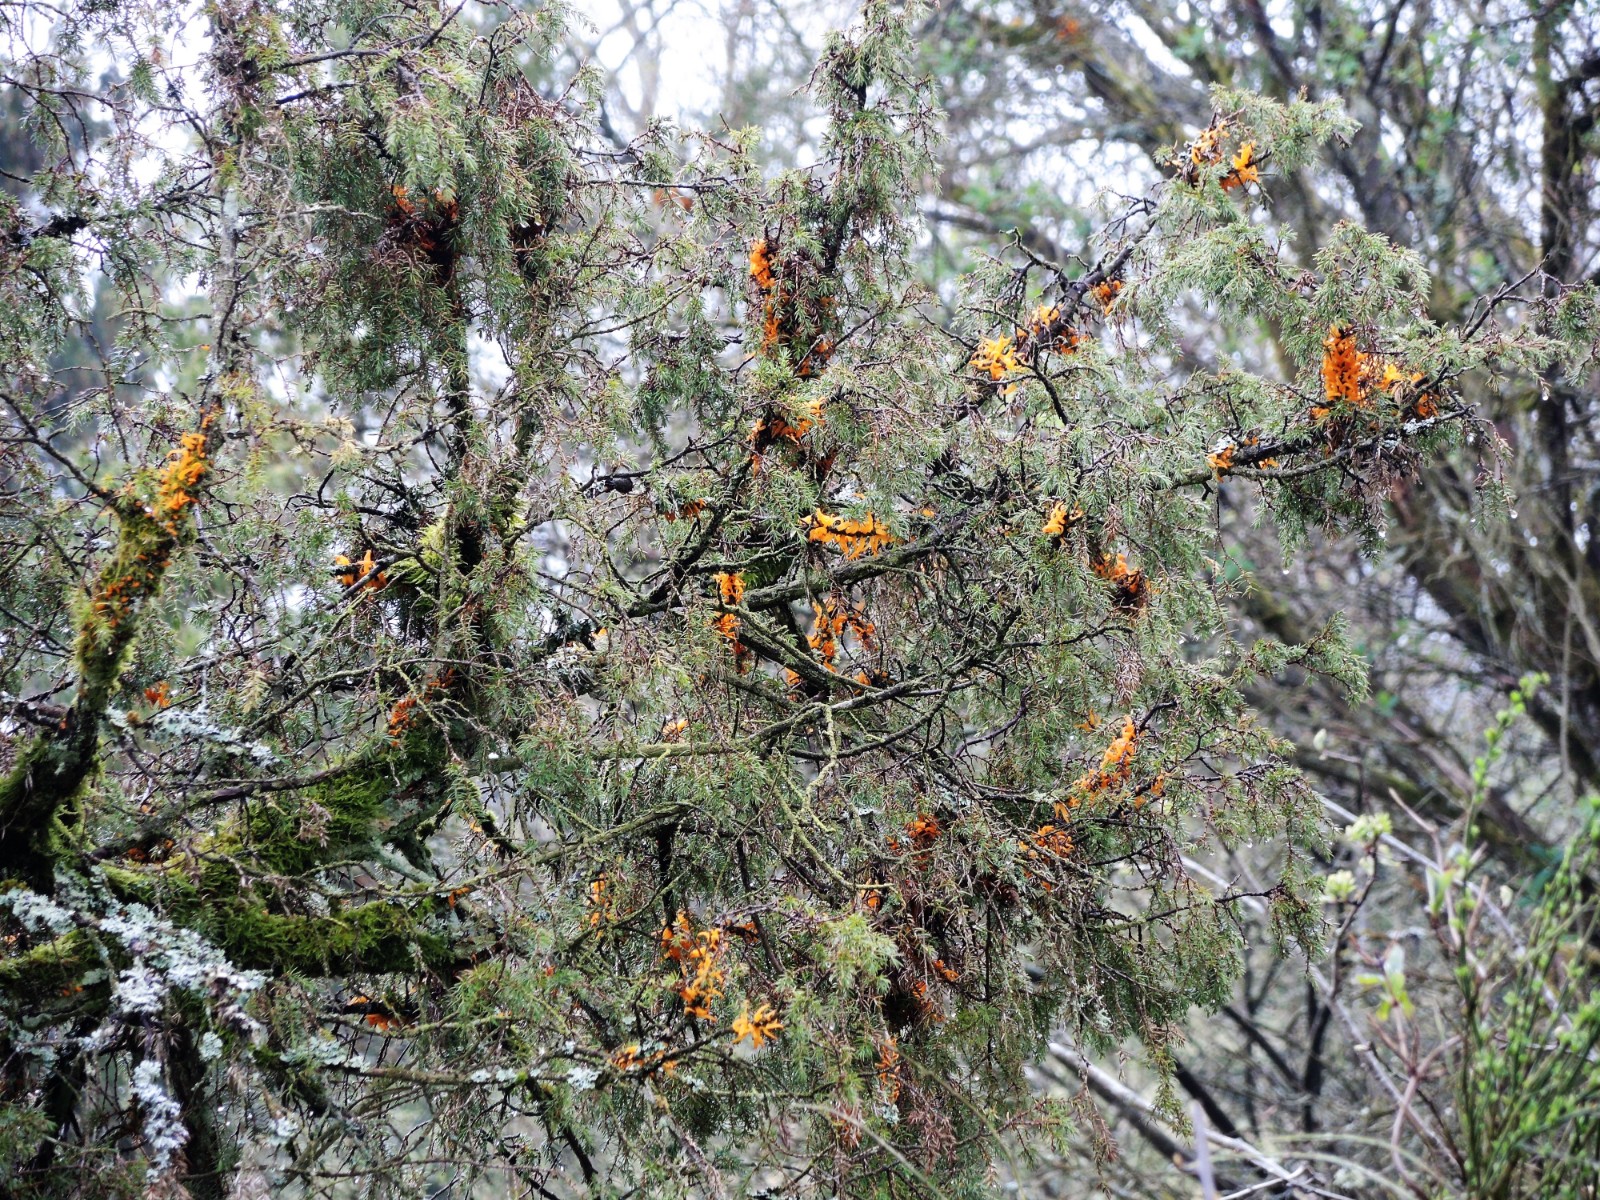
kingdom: Fungi
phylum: Basidiomycota
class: Pucciniomycetes
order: Pucciniales
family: Gymnosporangiaceae
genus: Gymnosporangium
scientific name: Gymnosporangium clavariiforme
